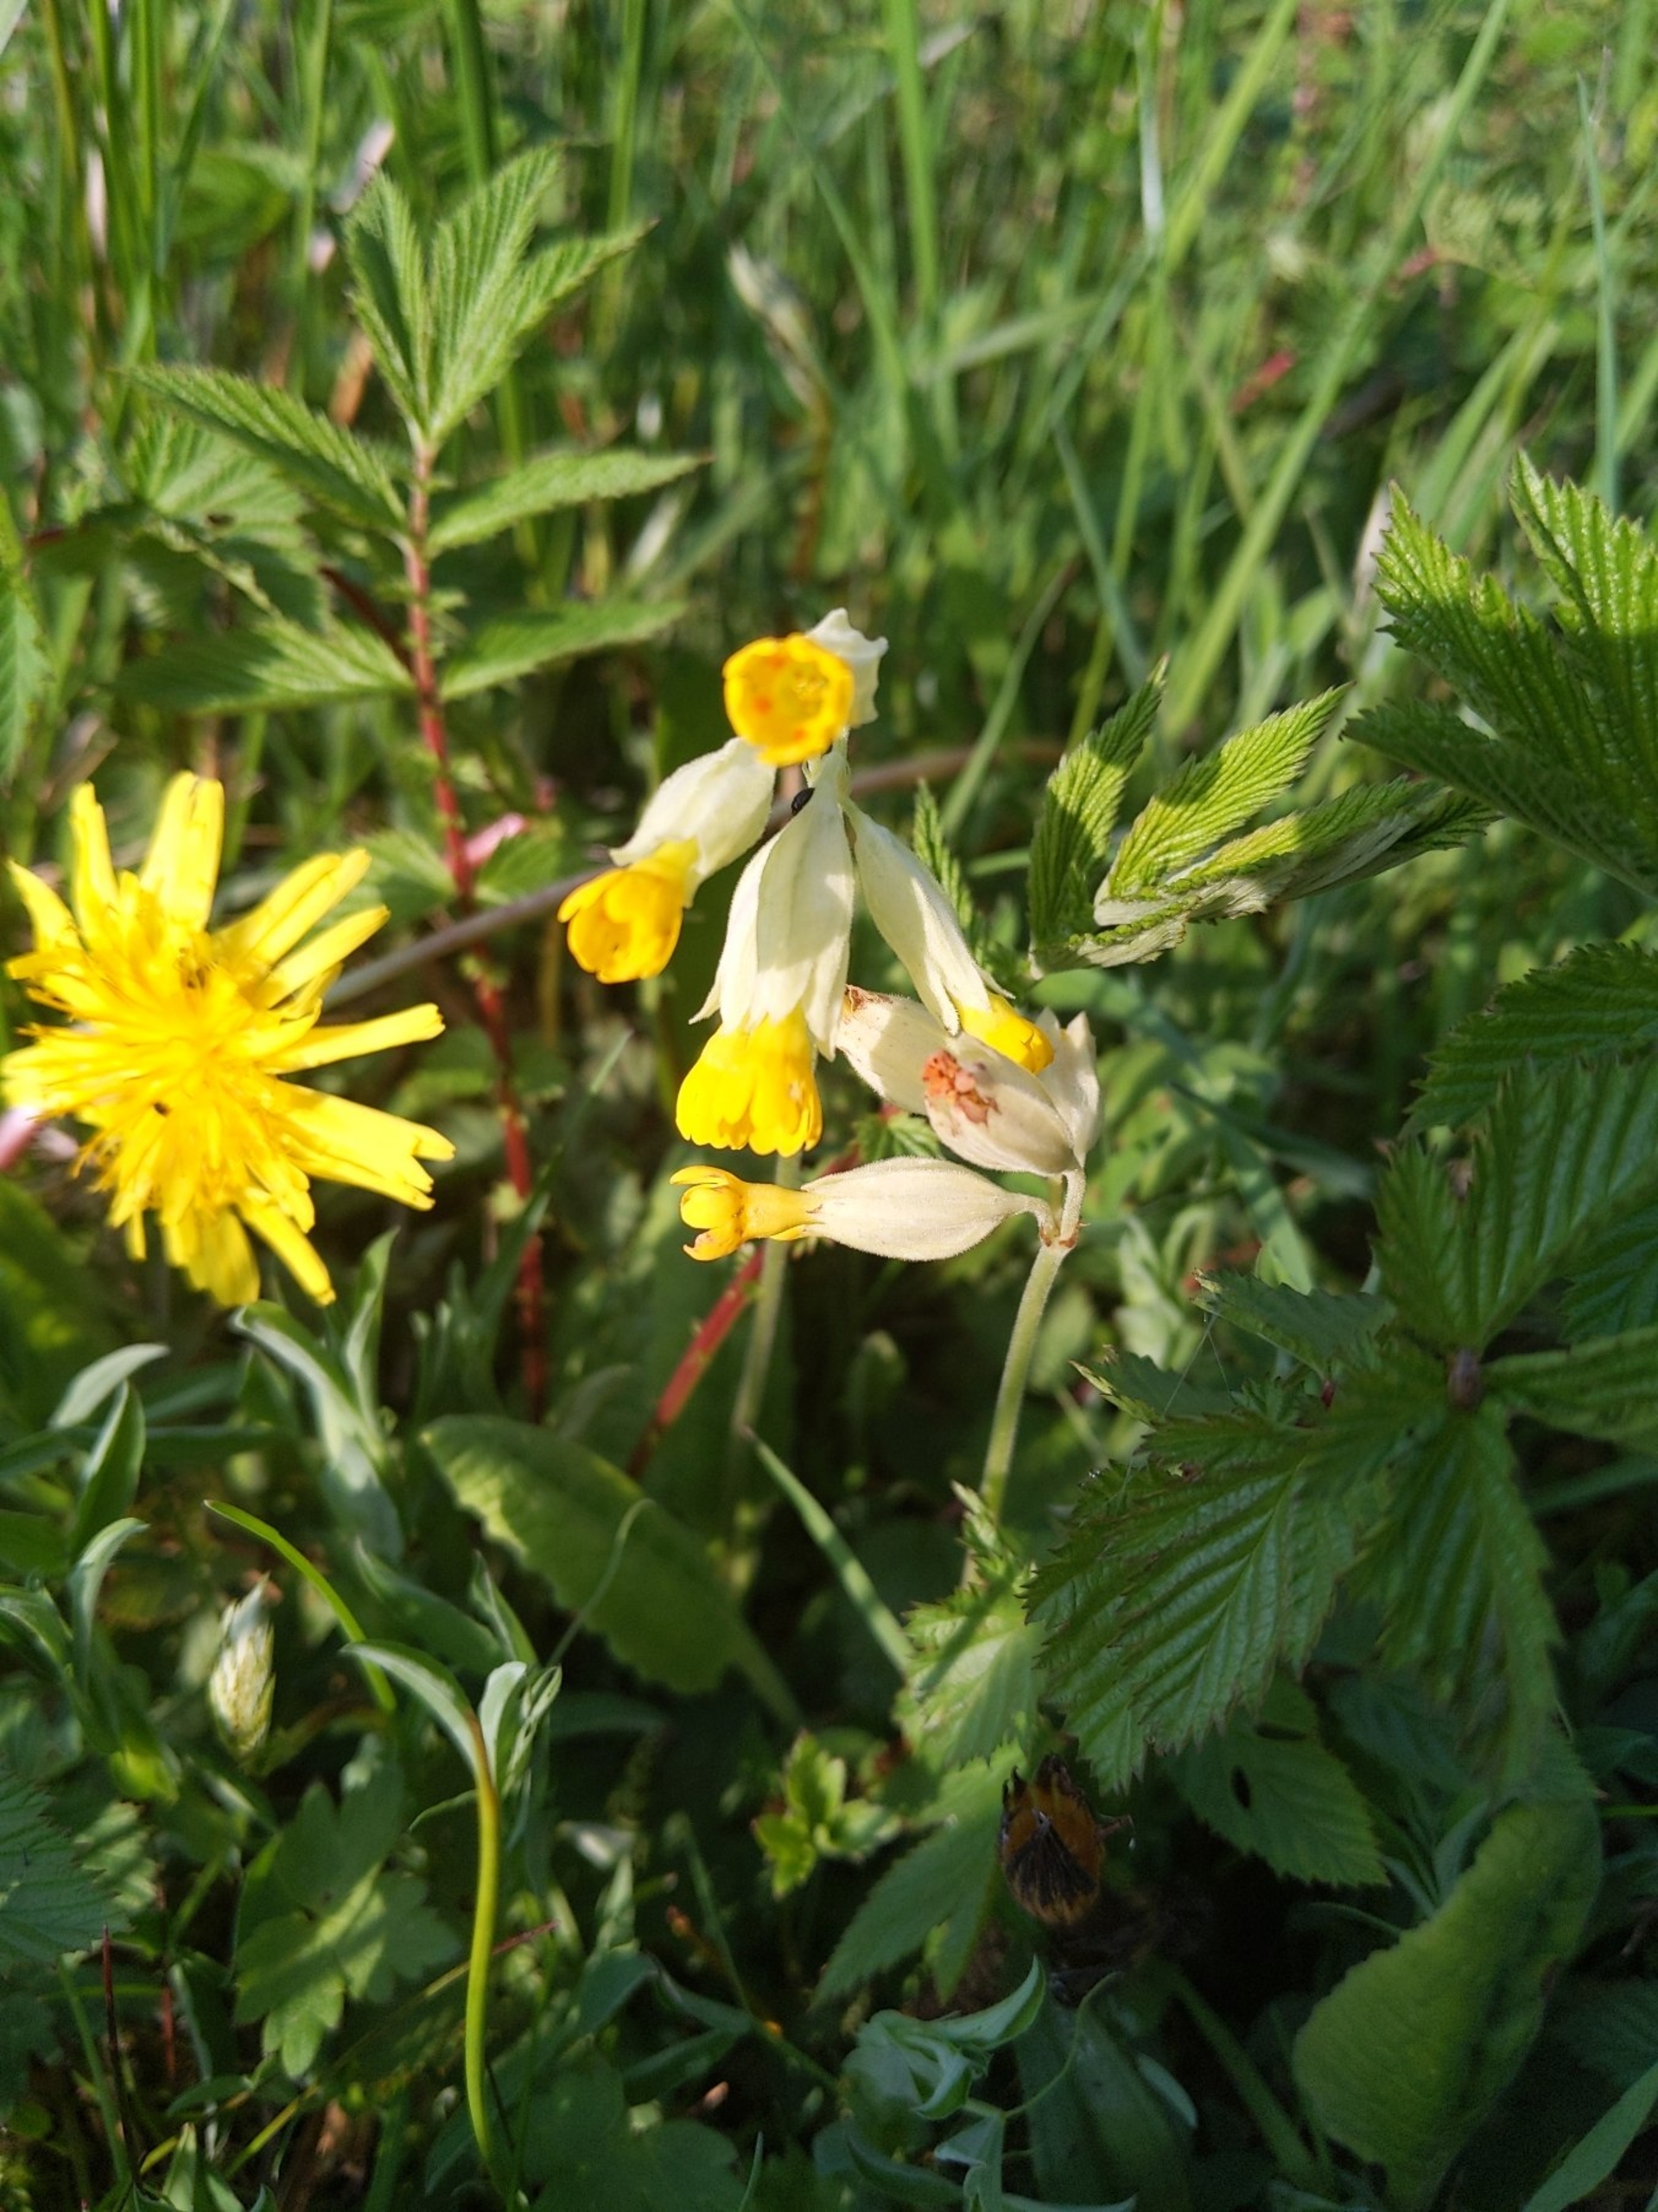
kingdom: Plantae
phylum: Tracheophyta
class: Magnoliopsida
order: Ericales
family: Primulaceae
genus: Primula
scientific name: Primula veris
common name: Hulkravet kodriver
